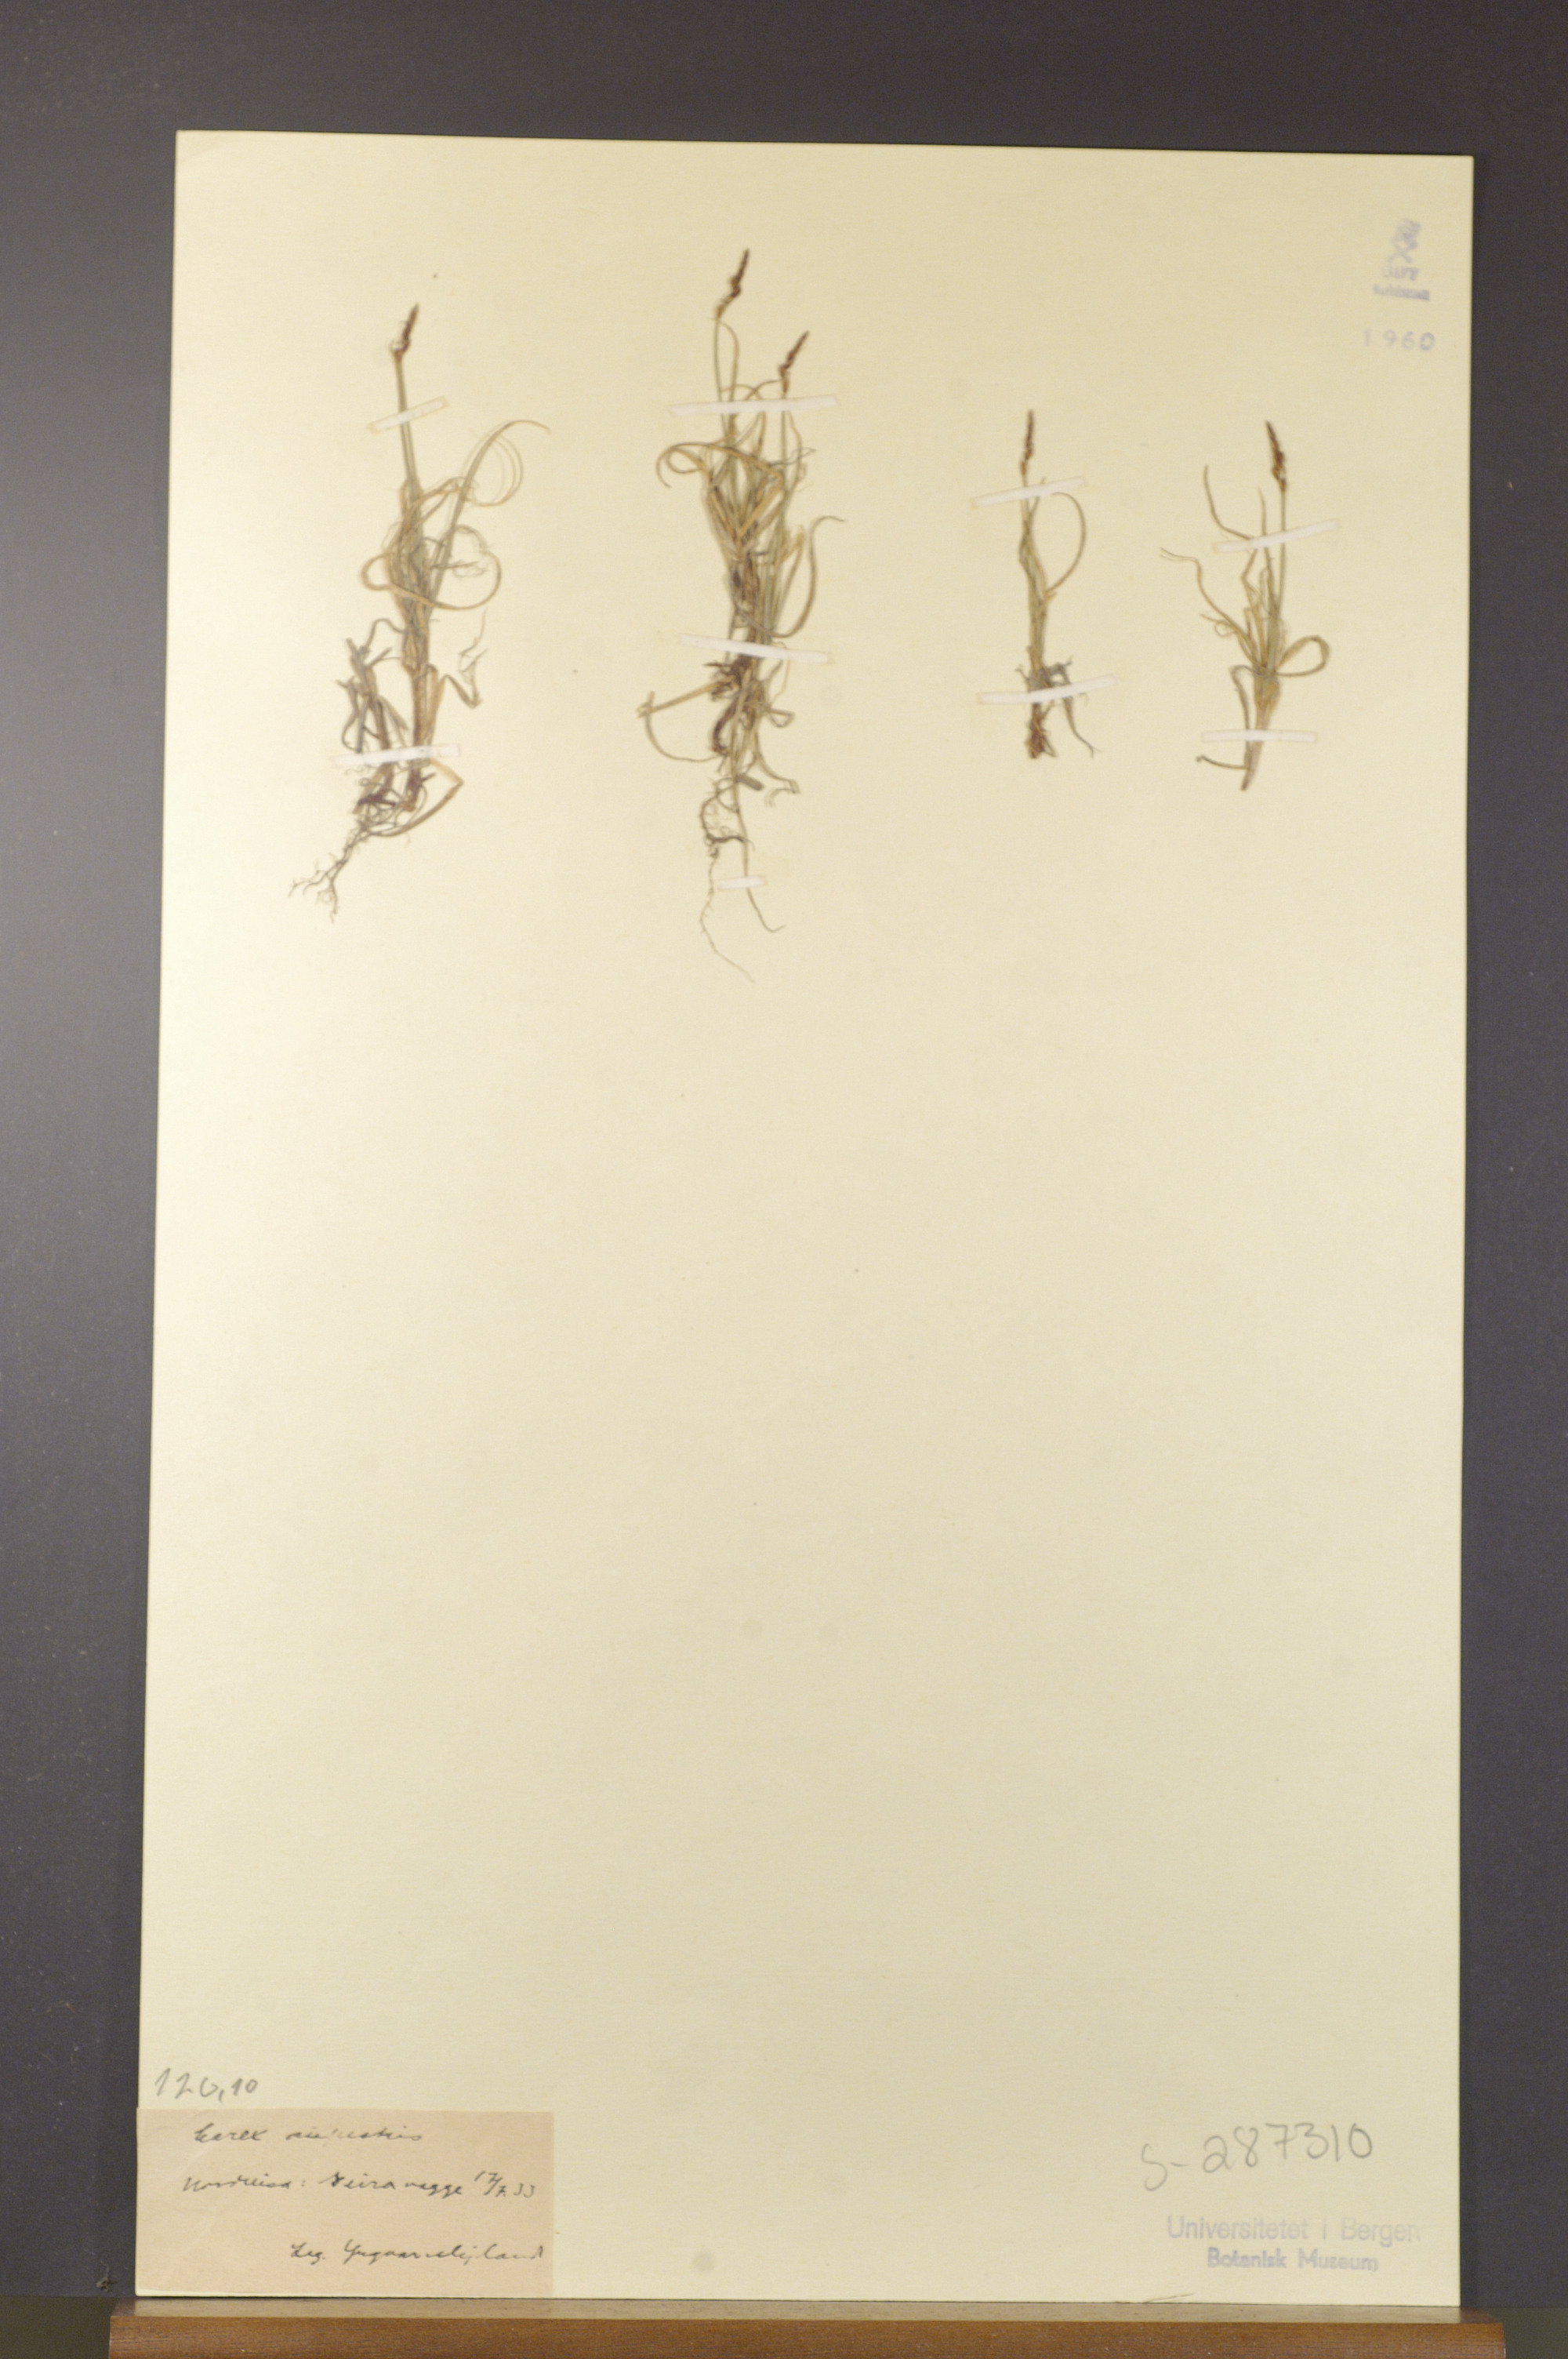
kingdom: Plantae
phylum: Tracheophyta
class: Liliopsida
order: Poales
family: Cyperaceae
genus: Carex
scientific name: Carex rupestris
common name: Rock sedge
